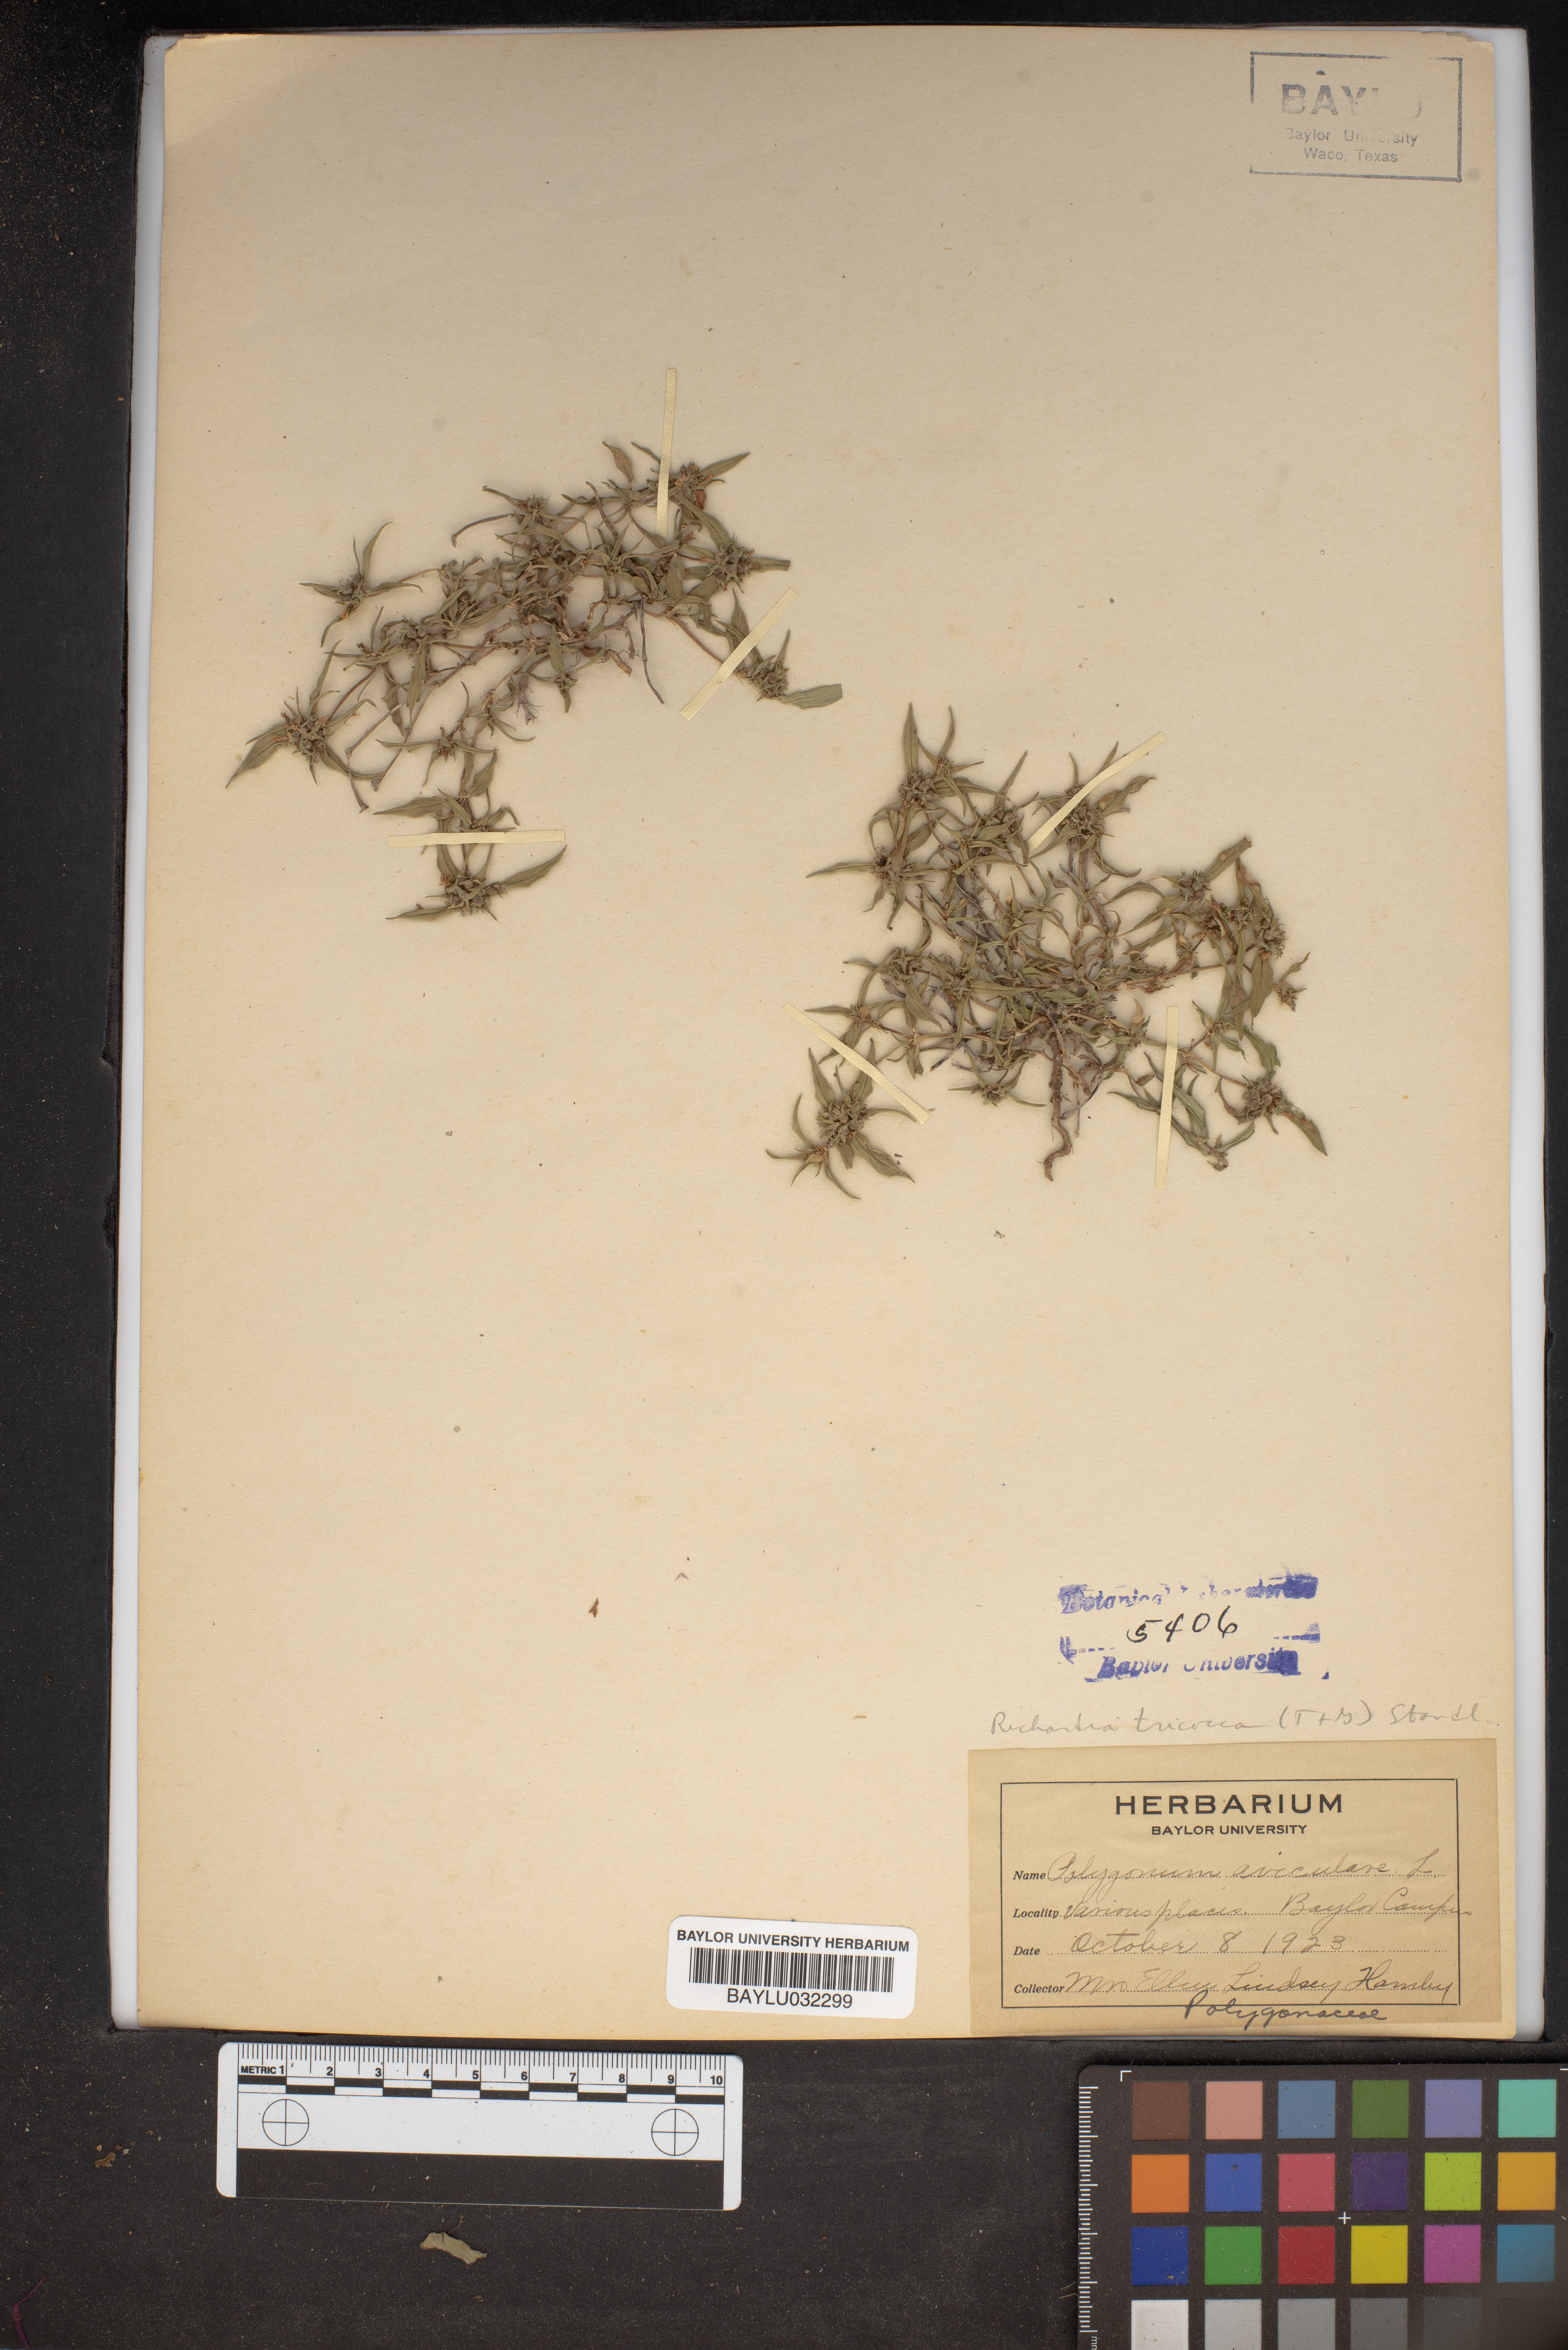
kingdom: Plantae
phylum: Tracheophyta
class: Magnoliopsida
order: Caryophyllales
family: Polygonaceae
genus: Polygonum
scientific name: Polygonum aviculare
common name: Prostrate knotweed
